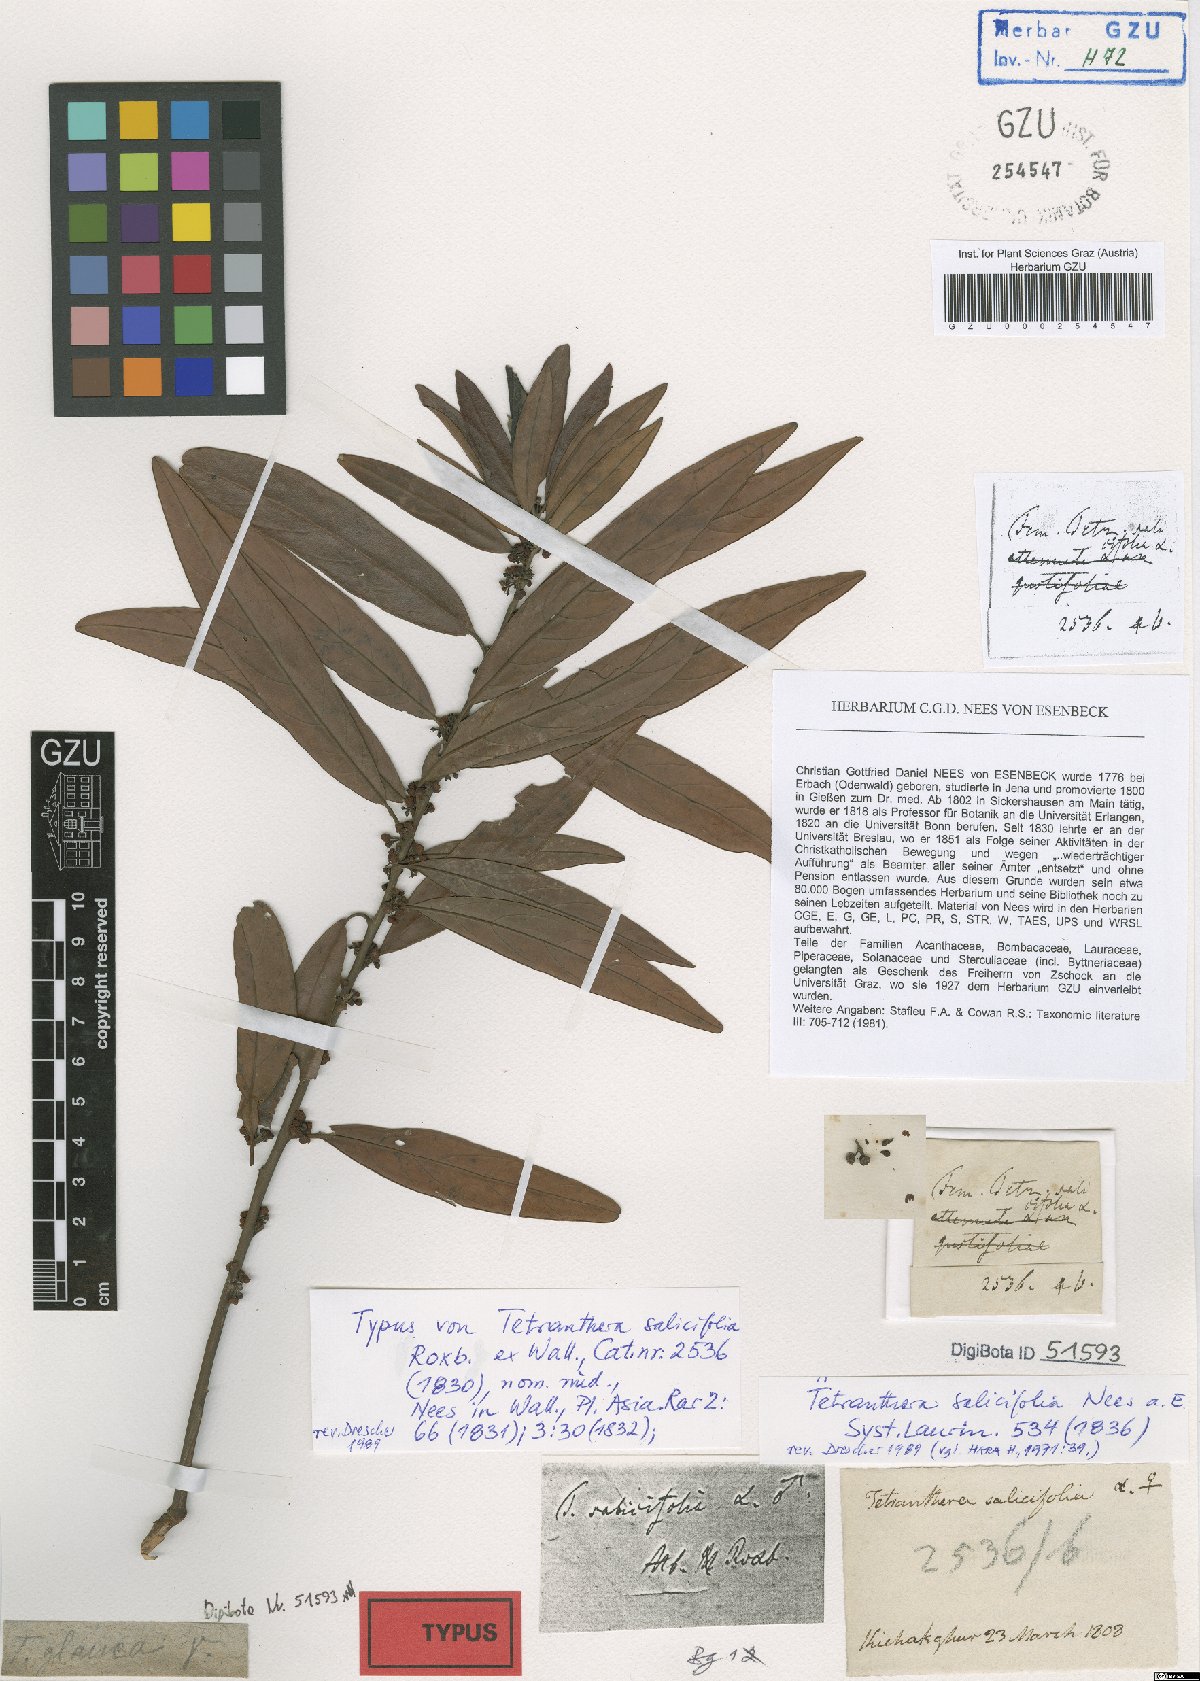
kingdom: Plantae
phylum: Tracheophyta
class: Magnoliopsida
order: Laurales
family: Lauraceae
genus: Litsea
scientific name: Litsea salicifolia
